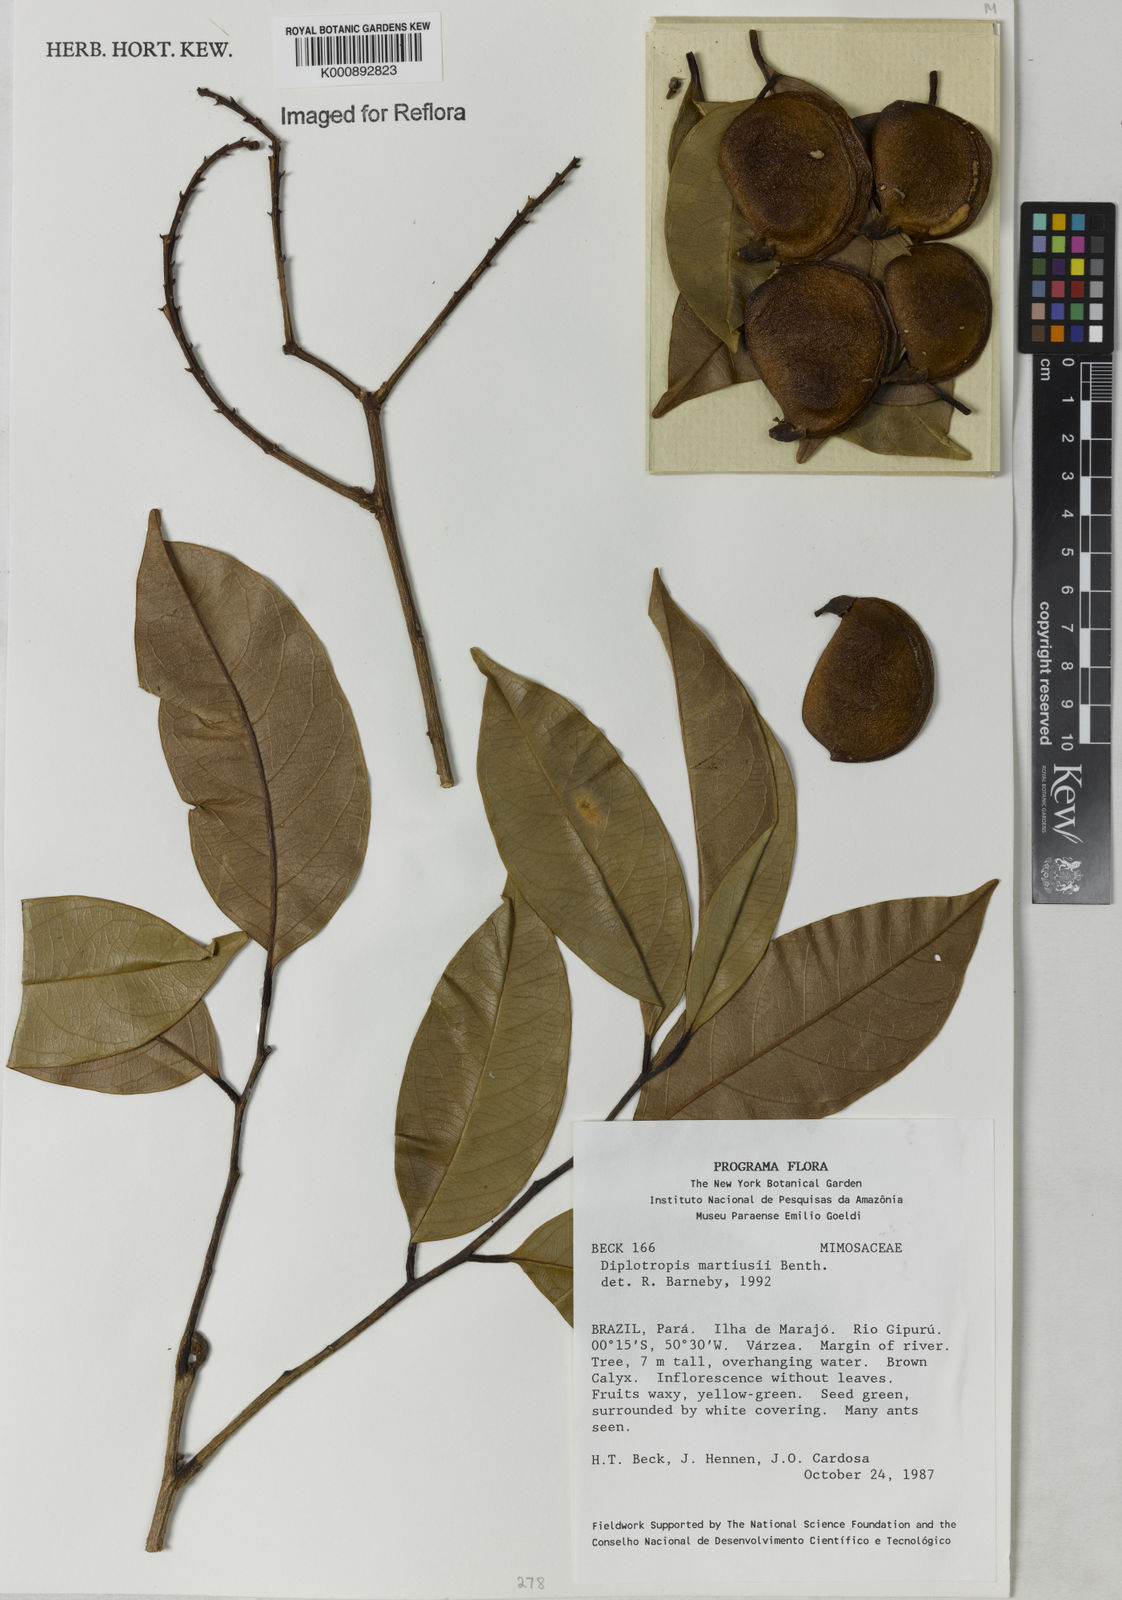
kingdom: Plantae
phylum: Tracheophyta
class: Magnoliopsida
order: Fabales
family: Fabaceae
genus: Diplotropis
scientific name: Diplotropis
